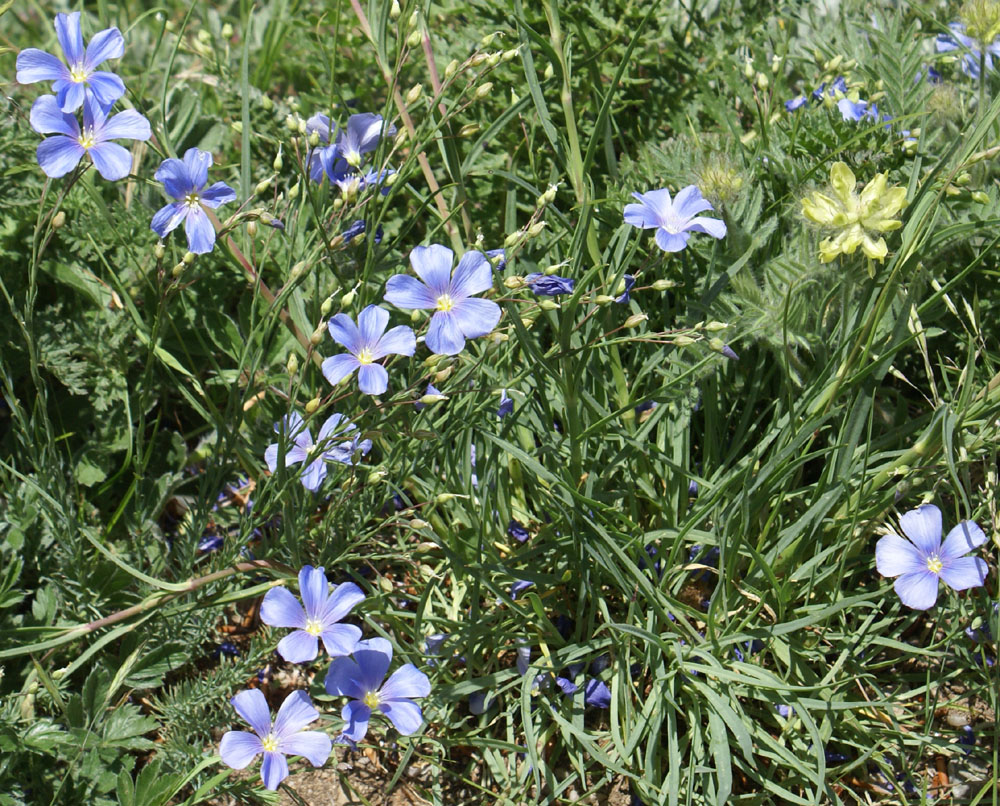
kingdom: Plantae
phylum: Tracheophyta
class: Magnoliopsida
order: Malpighiales
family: Linaceae
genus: Linum
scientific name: Linum nervosum
